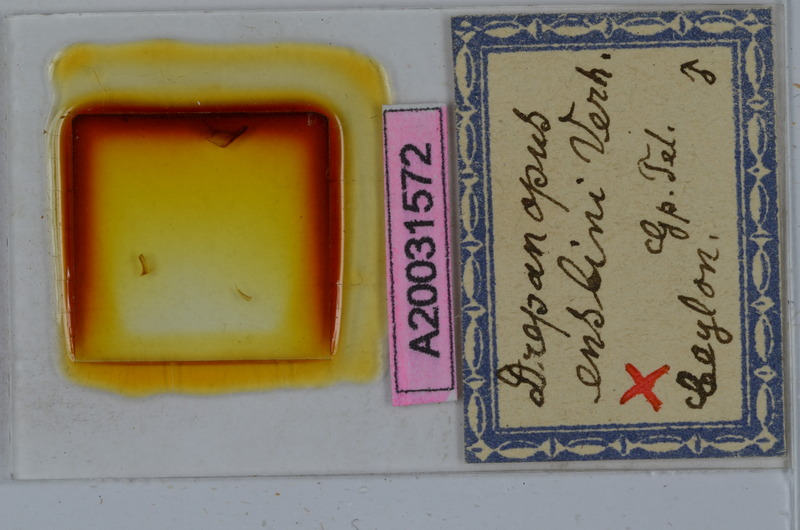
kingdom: Animalia
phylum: Arthropoda
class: Diplopoda
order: Spirostreptida
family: Harpagophoridae
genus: Ktenostreptus
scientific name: Ktenostreptus centrurus
